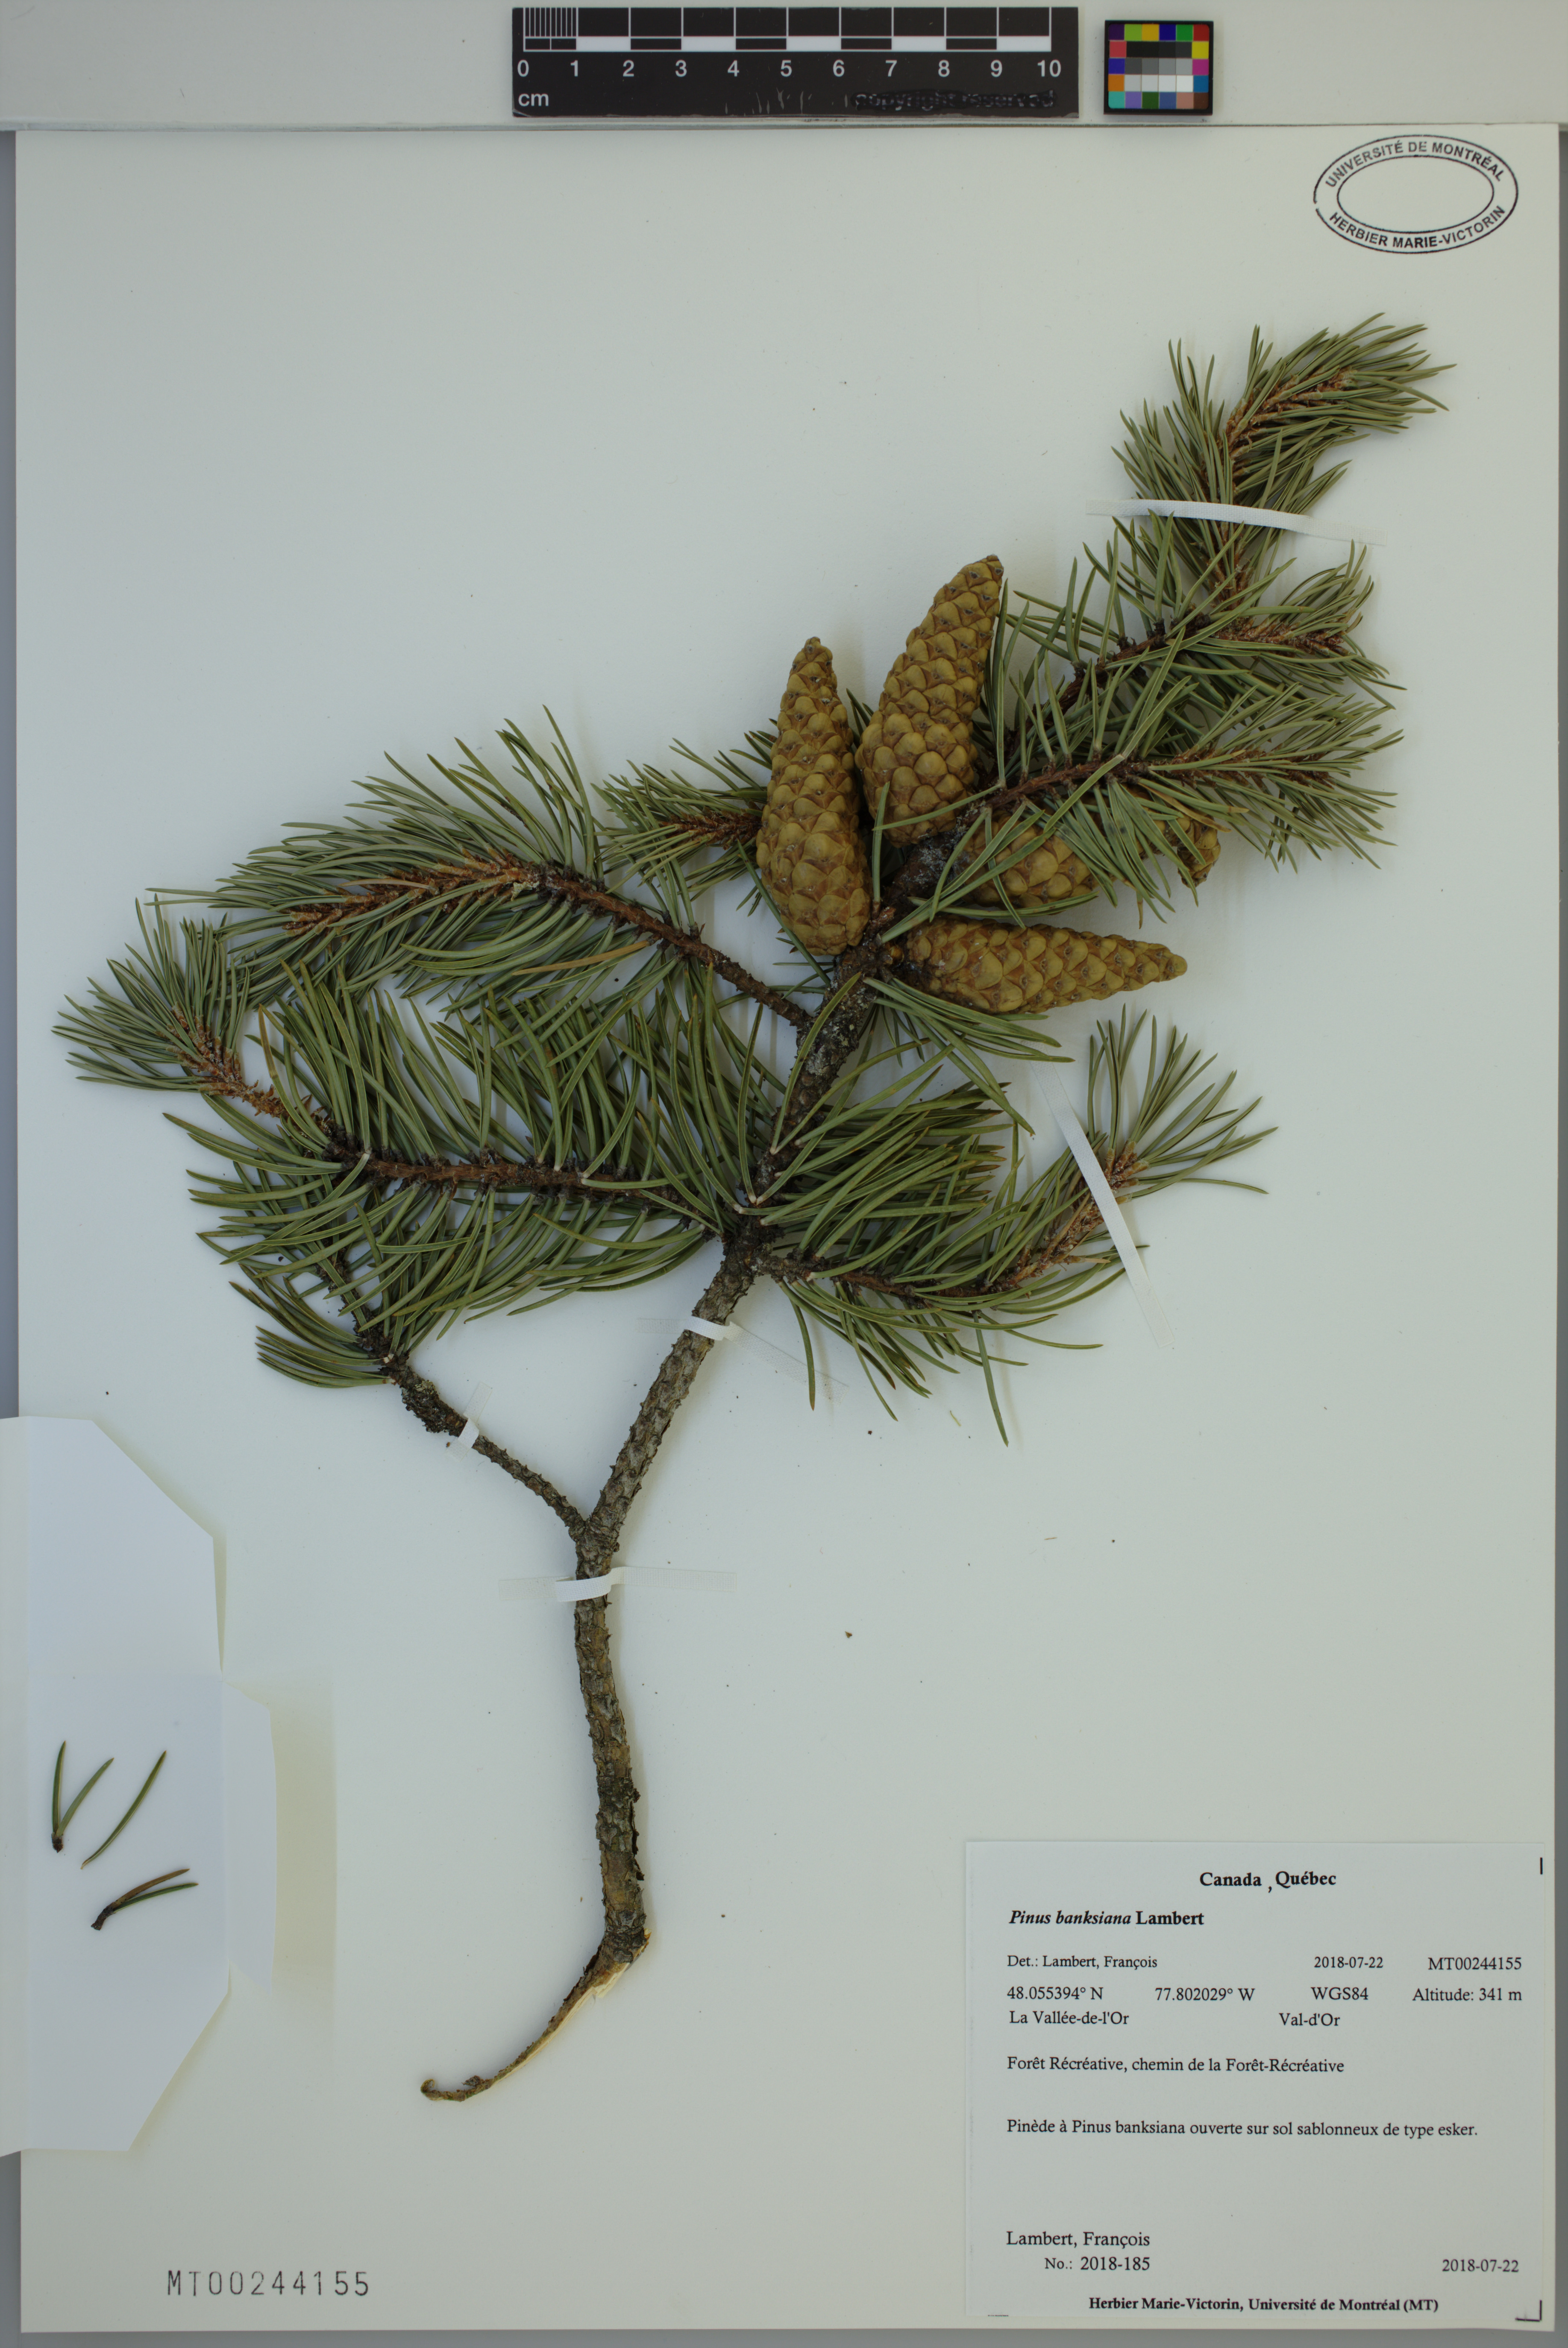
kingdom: Plantae
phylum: Tracheophyta
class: Pinopsida
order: Pinales
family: Pinaceae
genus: Pinus
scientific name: Pinus banksiana
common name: Jack pine
